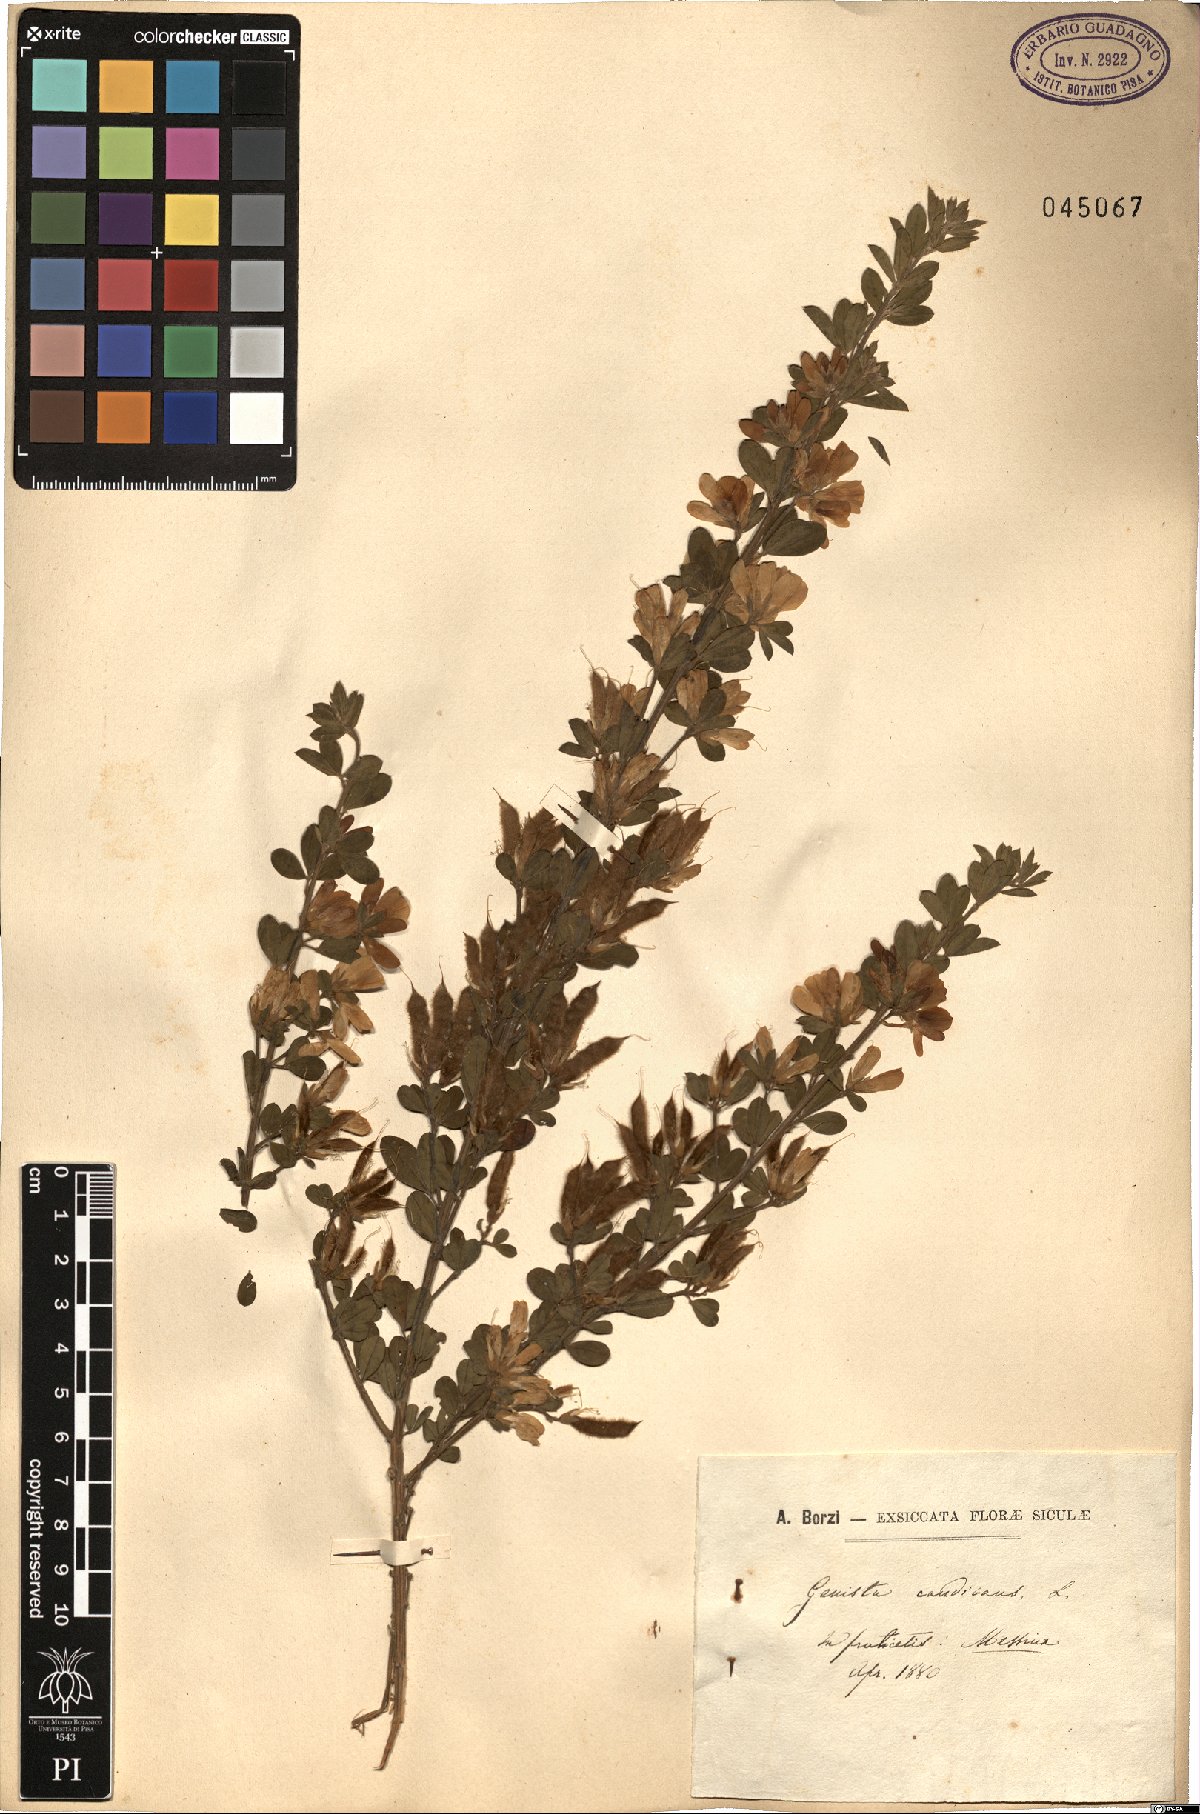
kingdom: Plantae
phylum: Tracheophyta
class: Magnoliopsida
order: Fabales
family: Fabaceae
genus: Genista
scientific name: Genista monspessulana
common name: Montpellier broom
